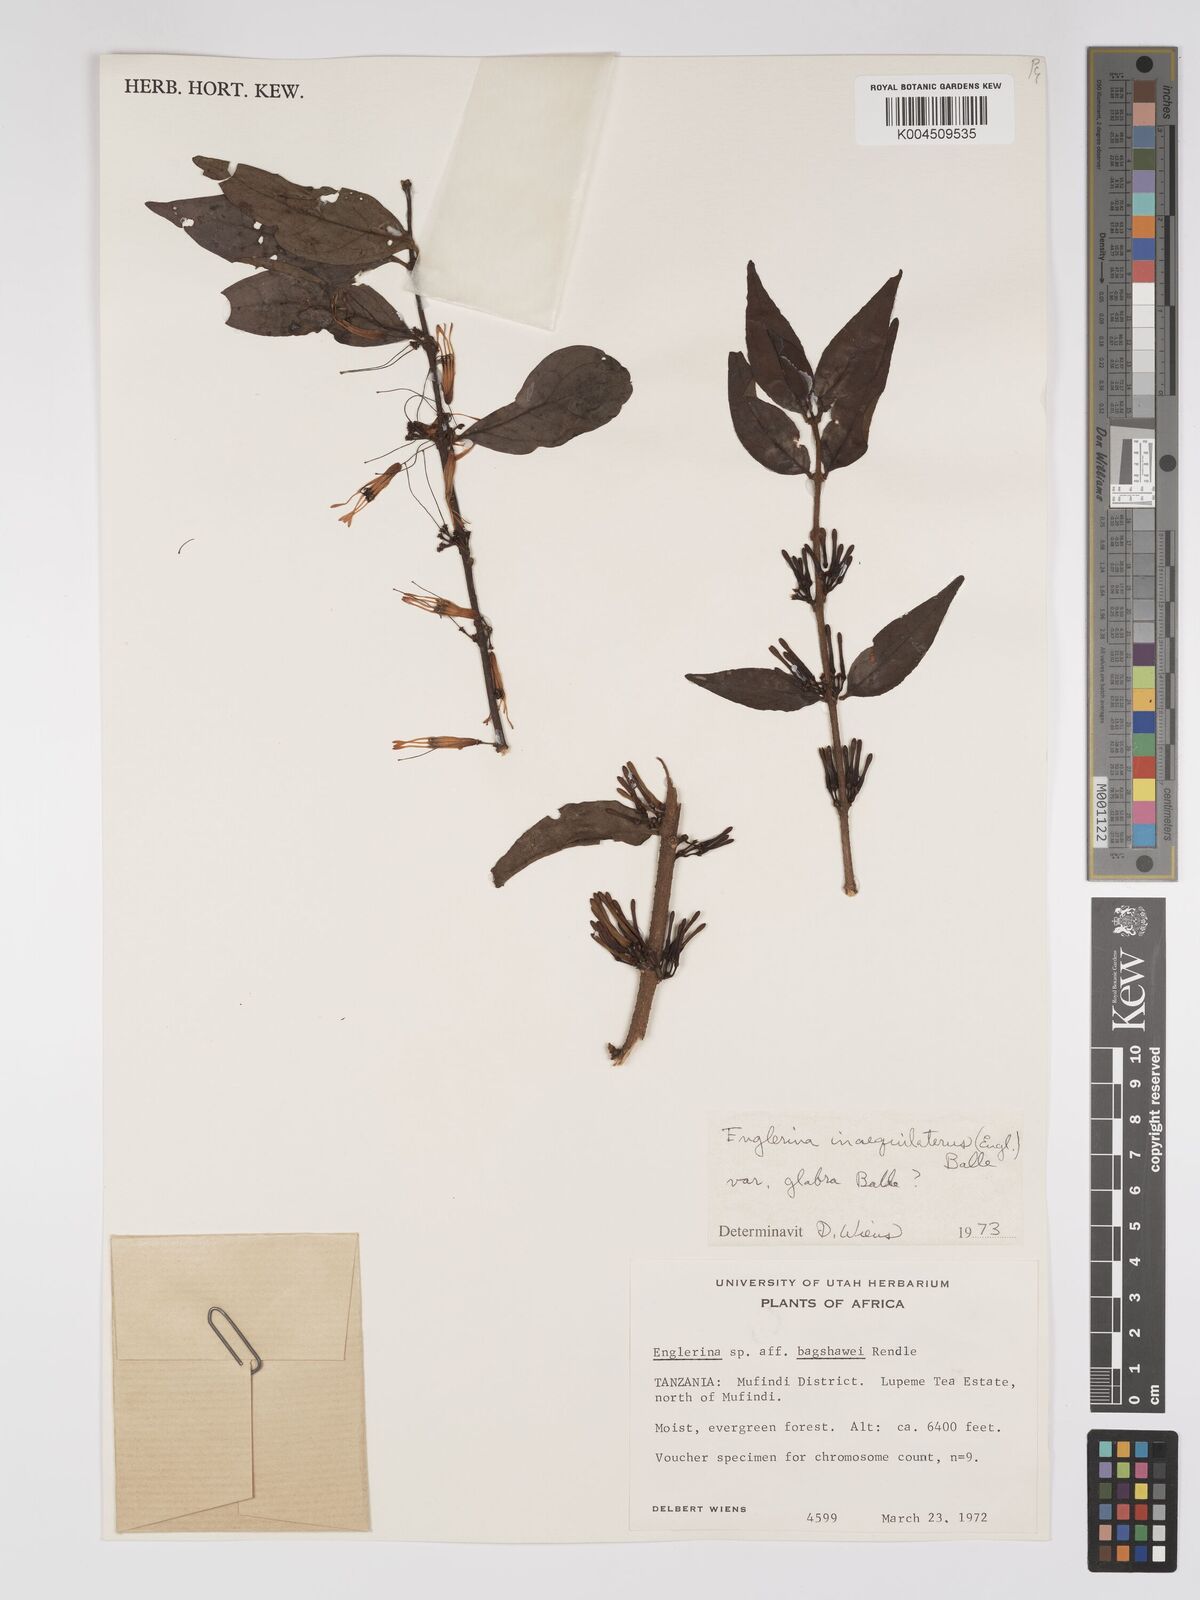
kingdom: Plantae
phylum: Tracheophyta
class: Magnoliopsida
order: Santalales
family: Loranthaceae
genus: Englerina
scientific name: Englerina inaequilatera
